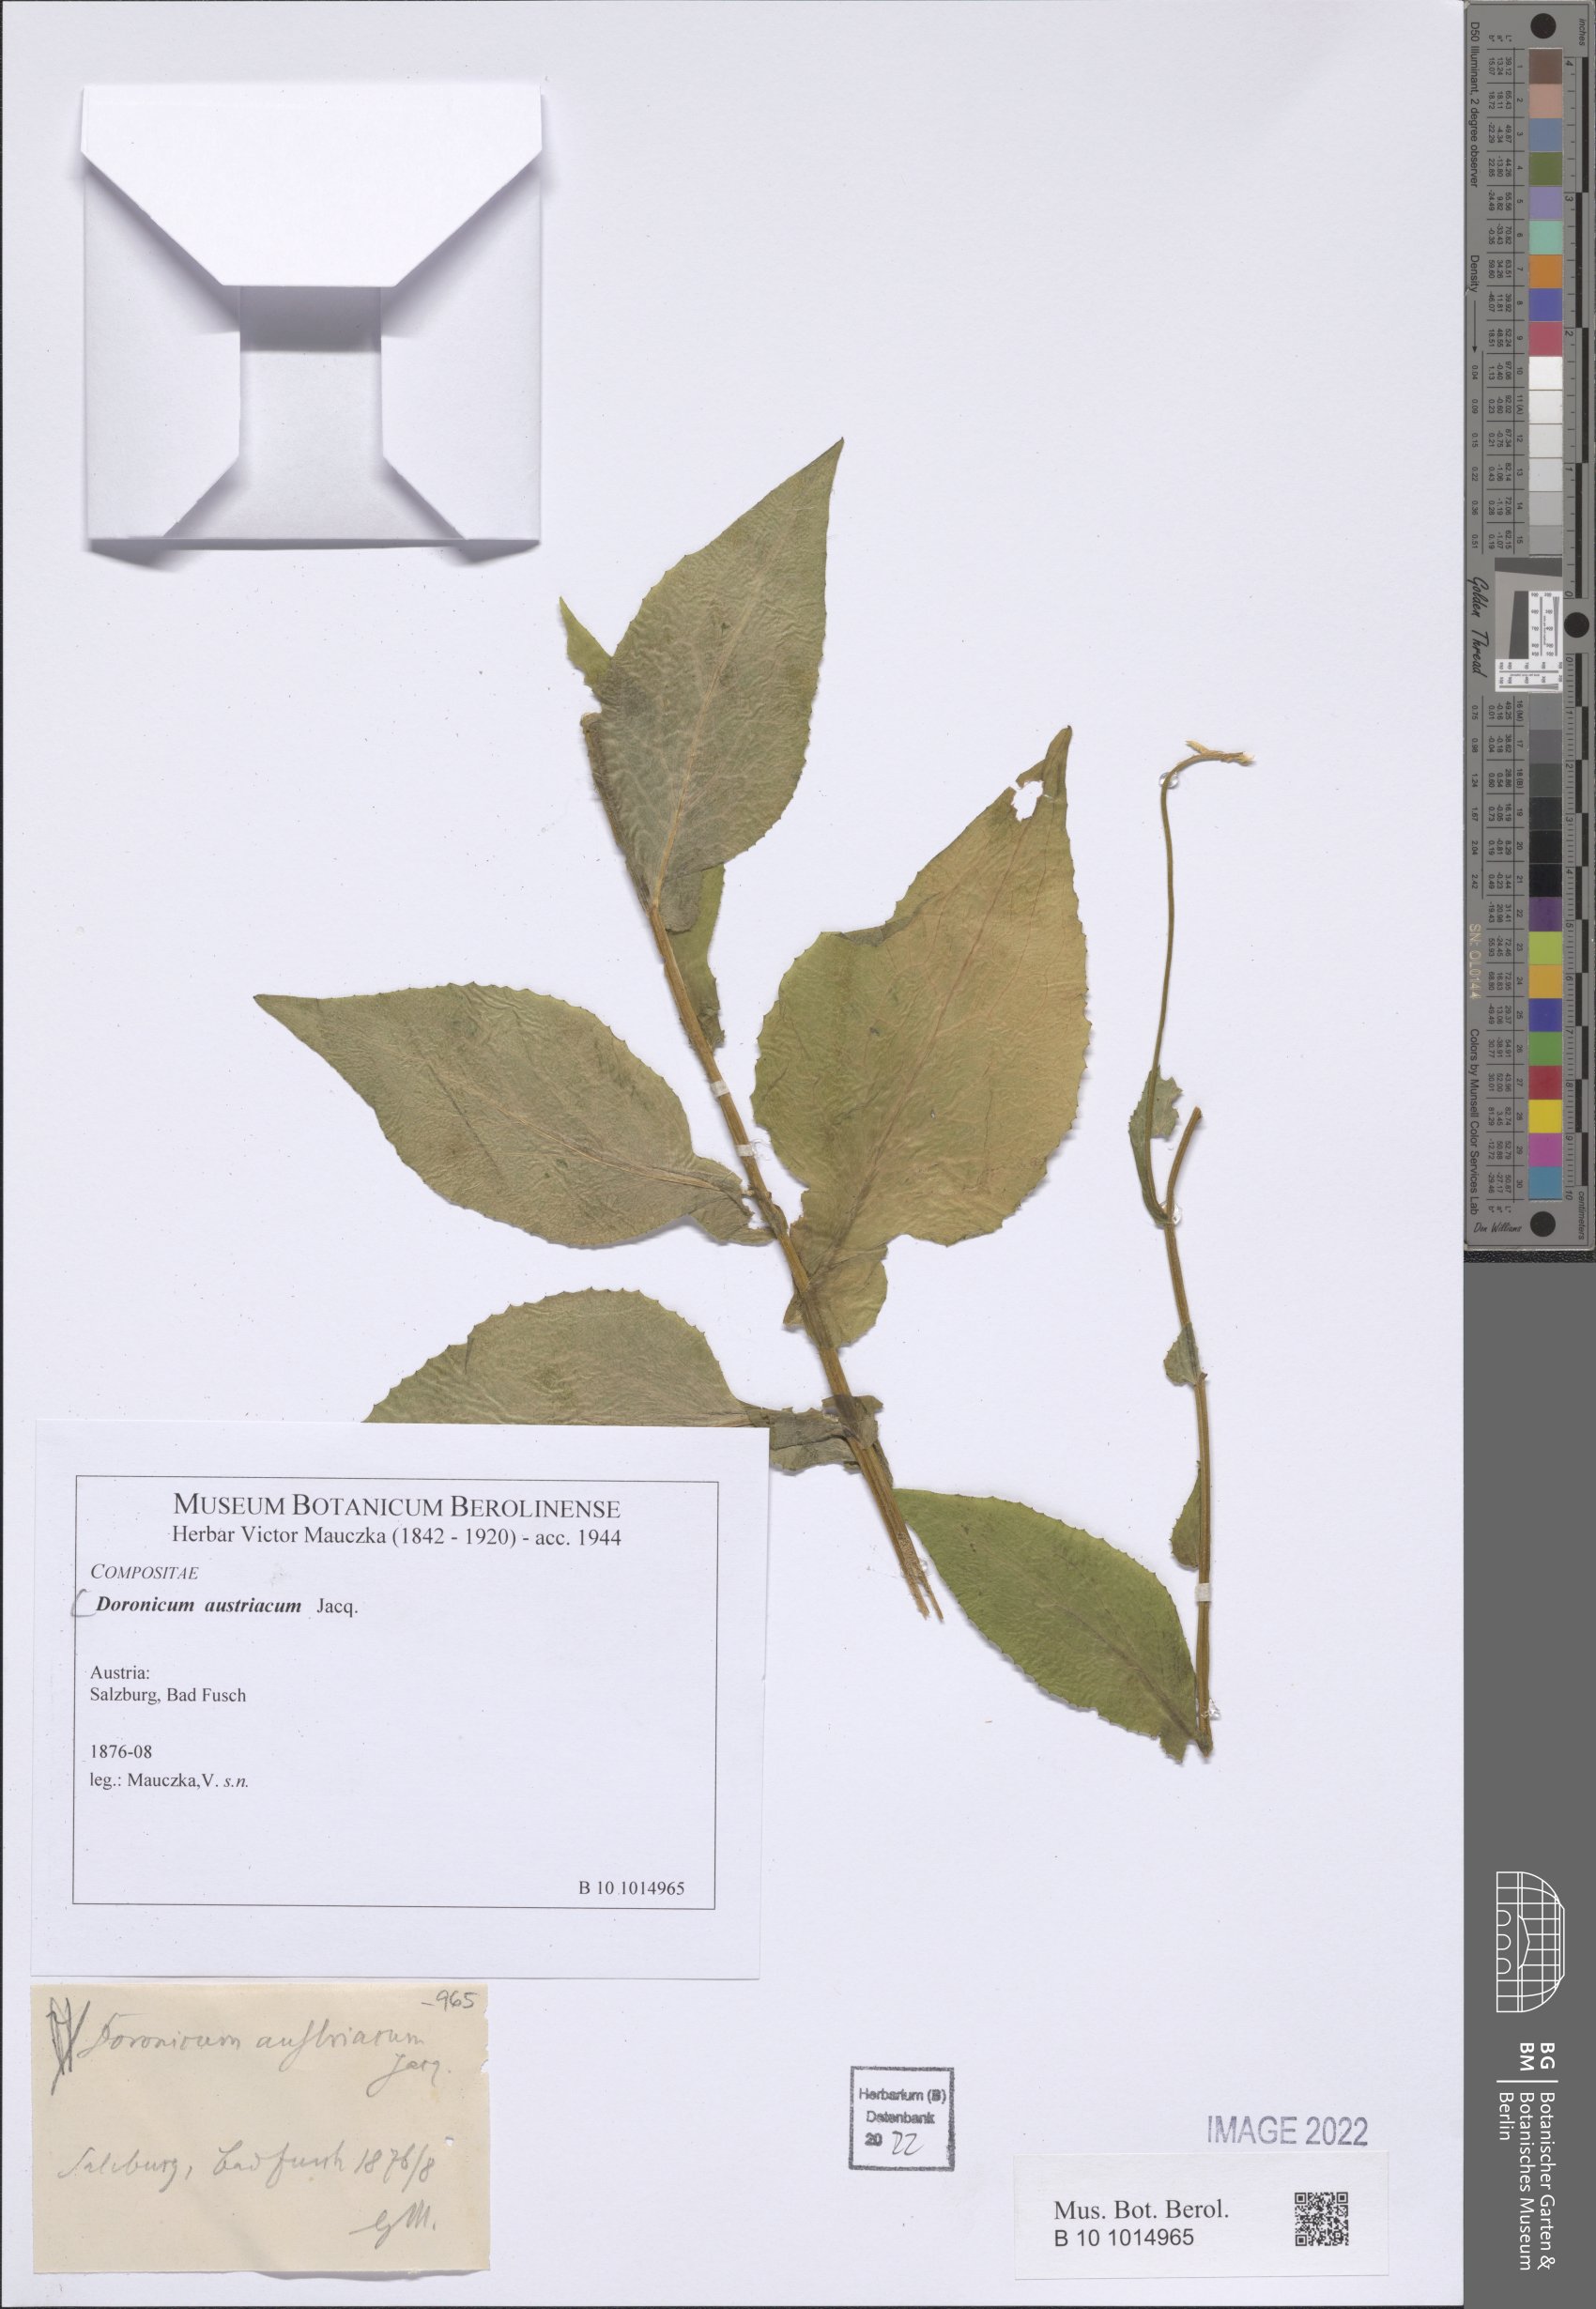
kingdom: Plantae
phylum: Tracheophyta
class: Magnoliopsida
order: Asterales
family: Asteraceae
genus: Doronicum
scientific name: Doronicum austriacum
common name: Austrian leopard's-bane
